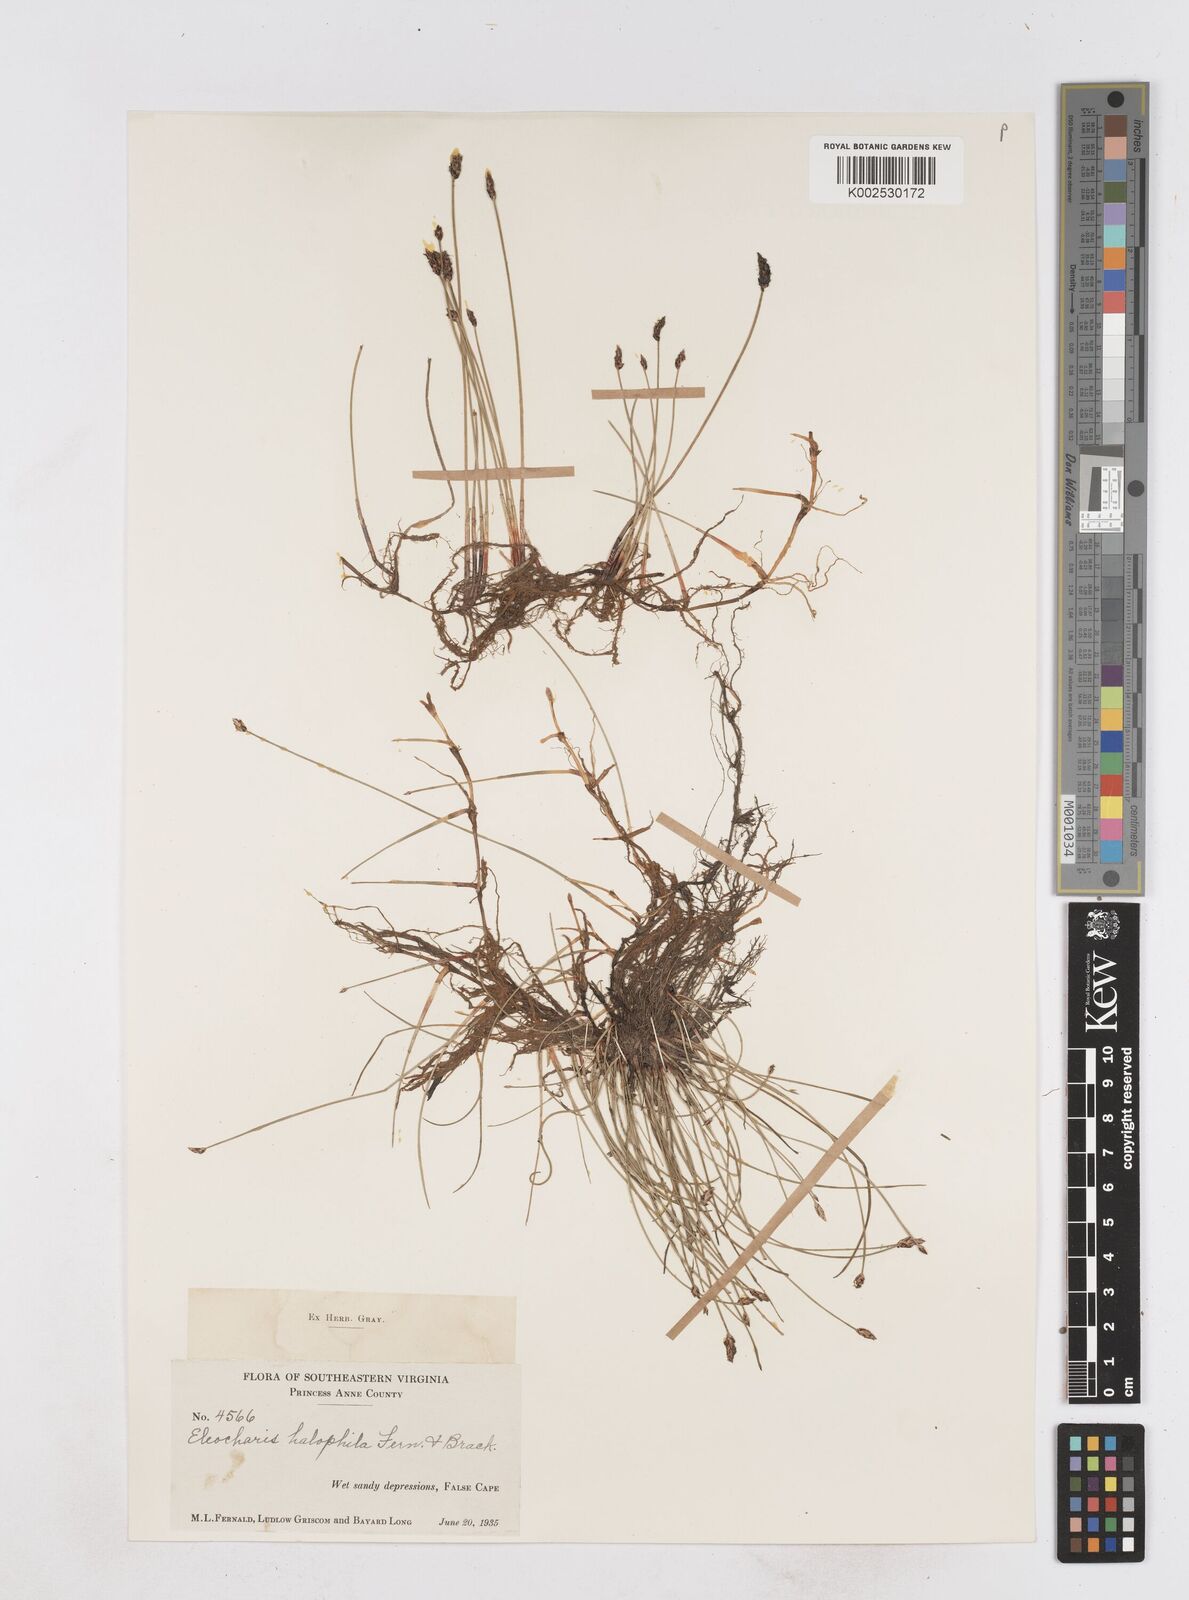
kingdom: Plantae
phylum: Tracheophyta
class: Liliopsida
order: Poales
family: Cyperaceae
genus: Eleocharis
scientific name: Eleocharis uniglumis
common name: Slender spike-rush
